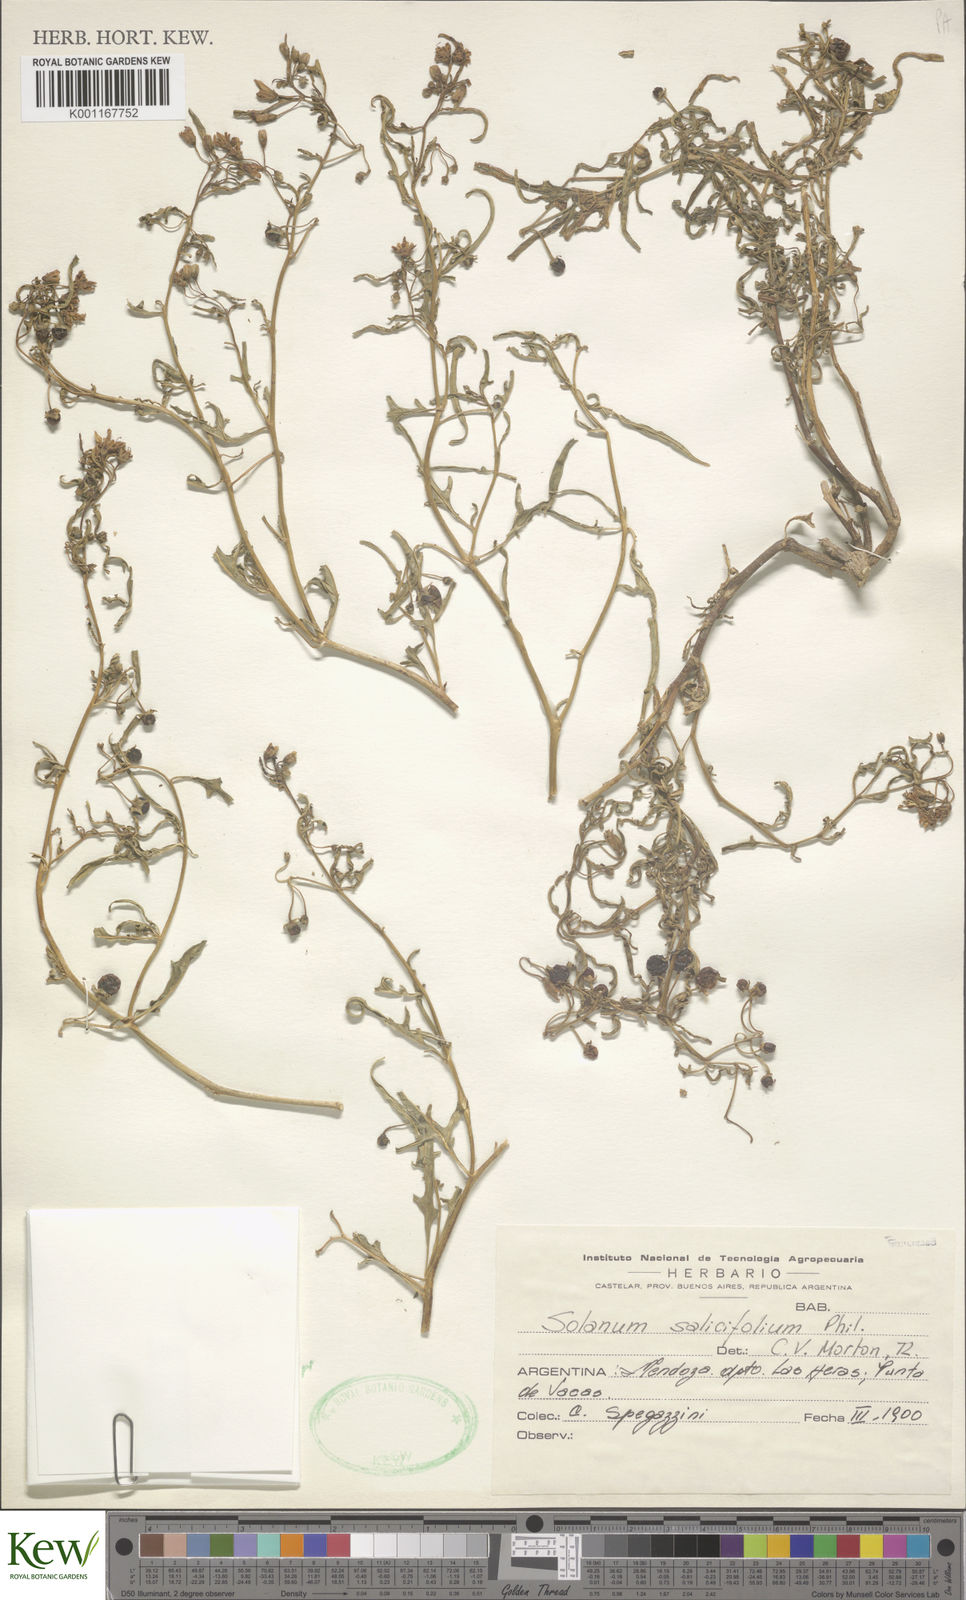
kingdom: Plantae
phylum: Tracheophyta
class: Magnoliopsida
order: Solanales
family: Solanaceae
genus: Solanum
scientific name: Solanum salicifolium
